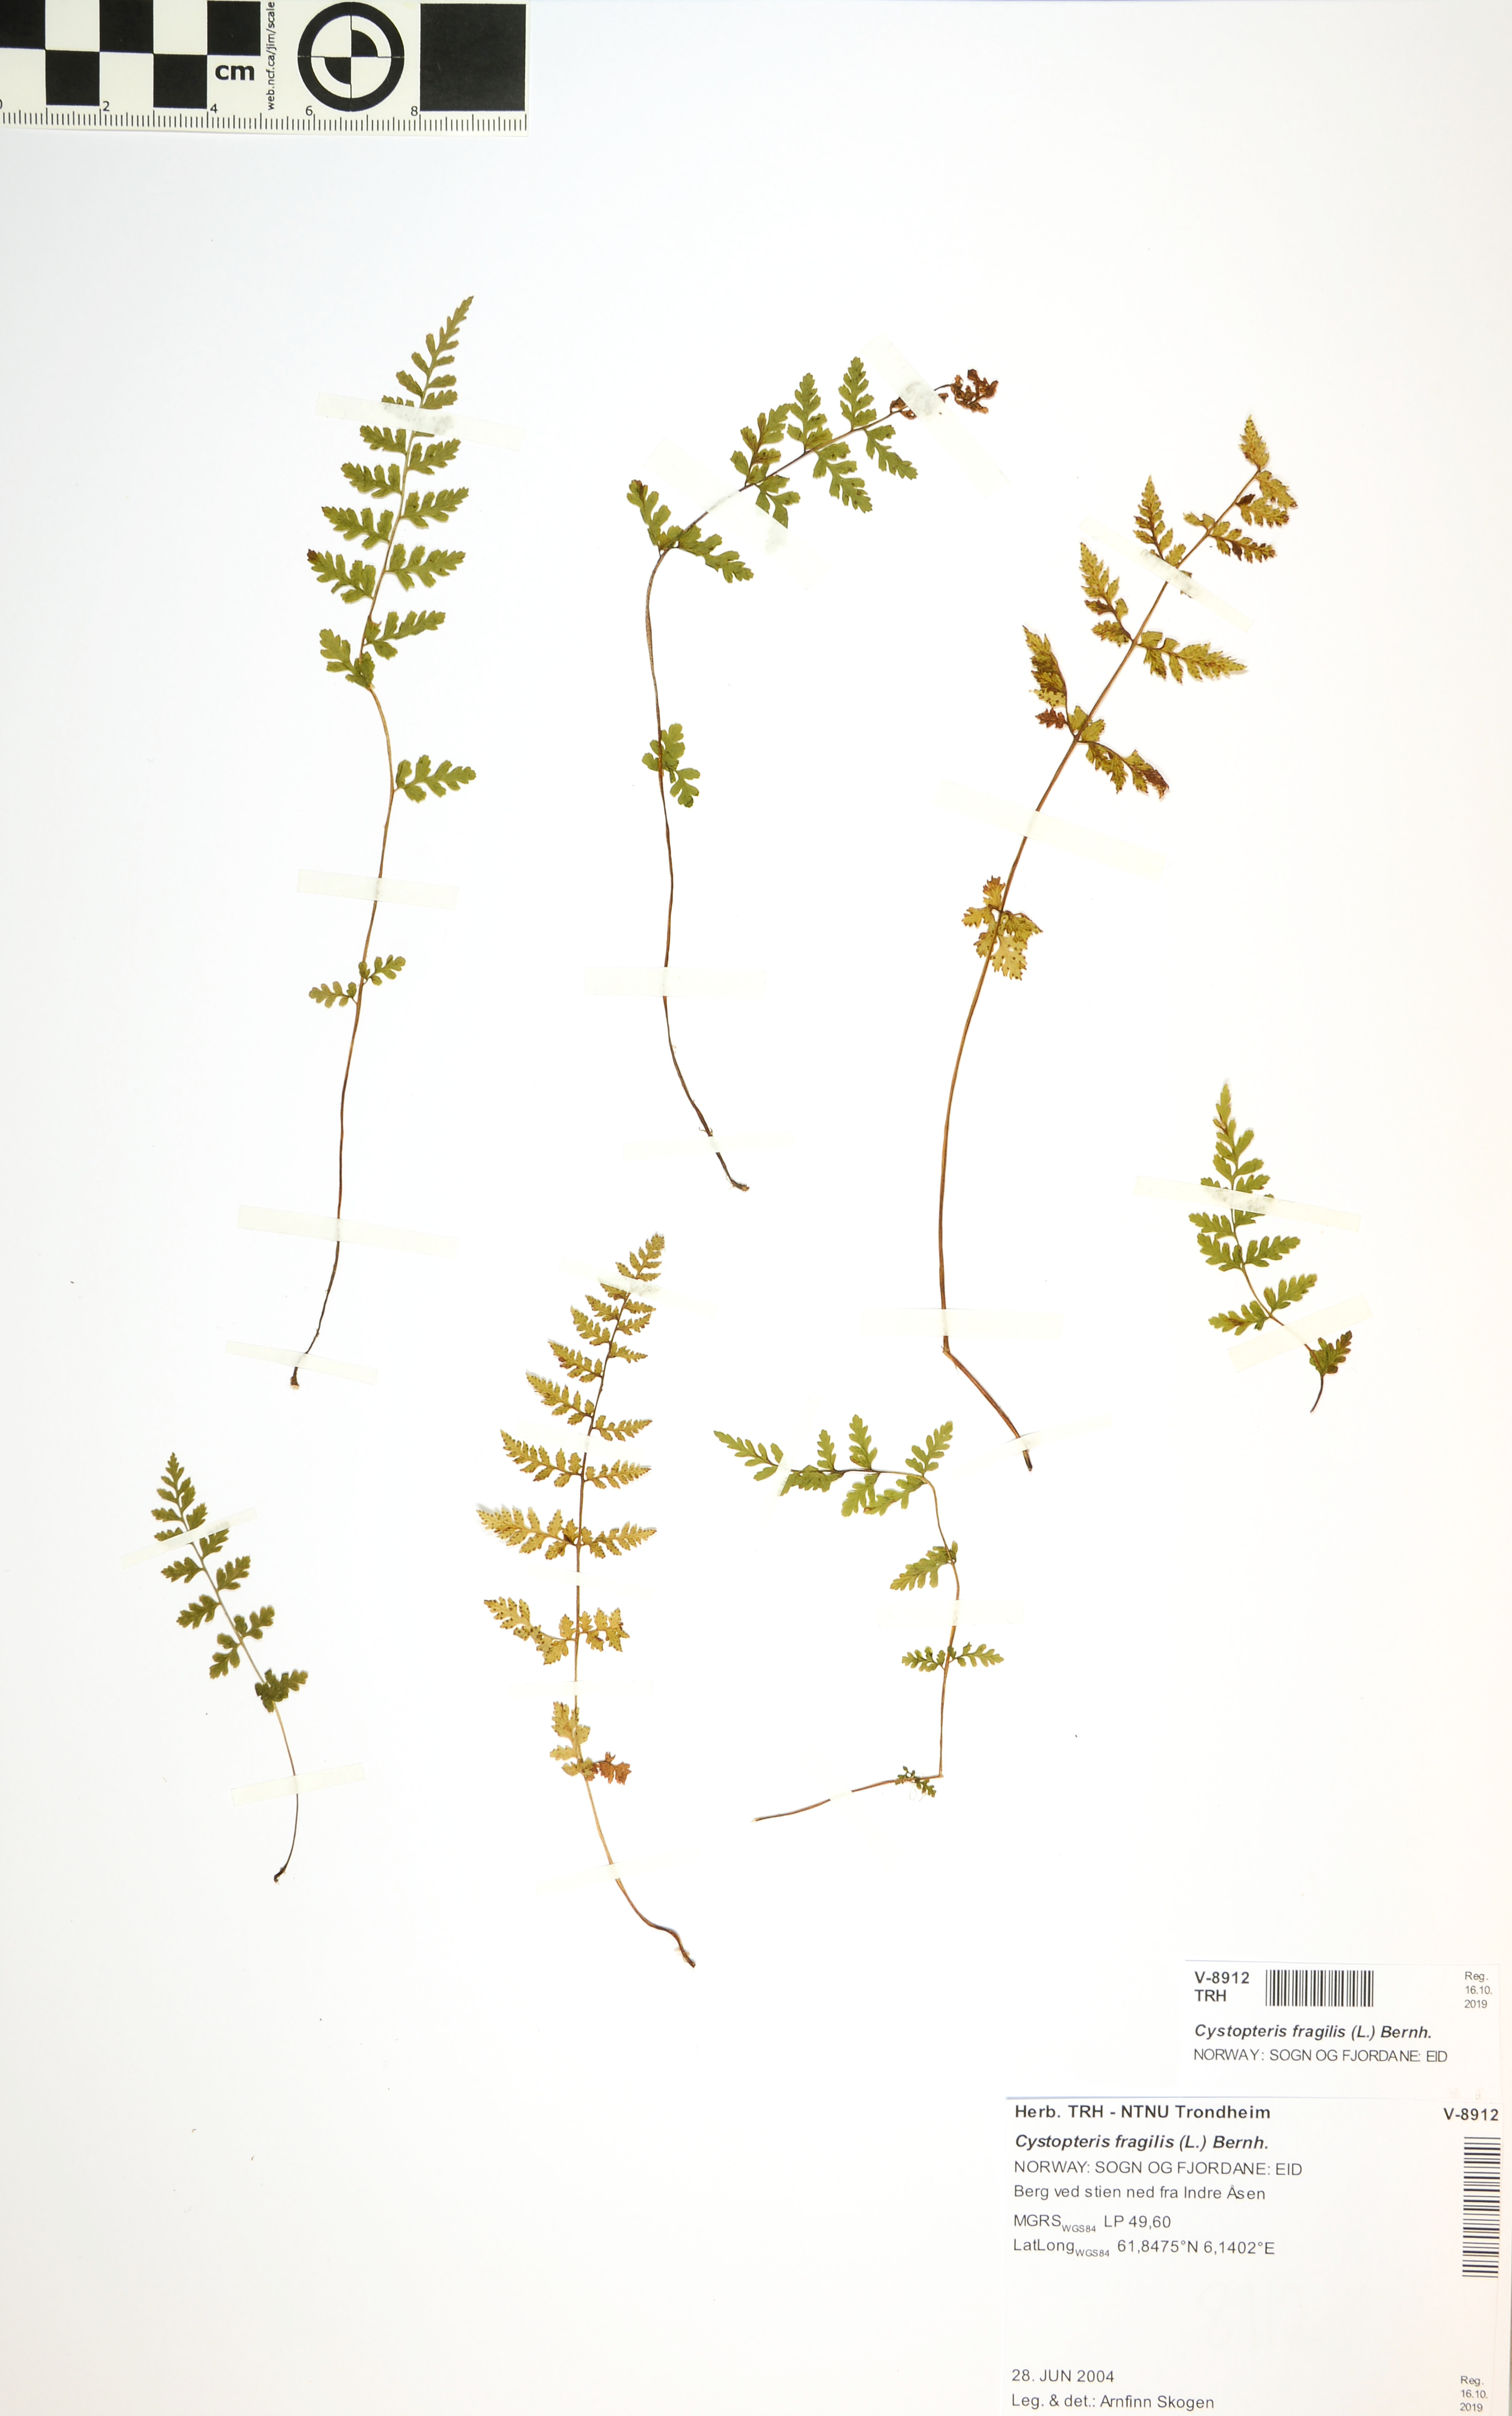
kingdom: Plantae
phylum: Tracheophyta
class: Polypodiopsida
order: Polypodiales
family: Cystopteridaceae
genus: Cystopteris
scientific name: Cystopteris fragilis
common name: Brittle bladder fern
